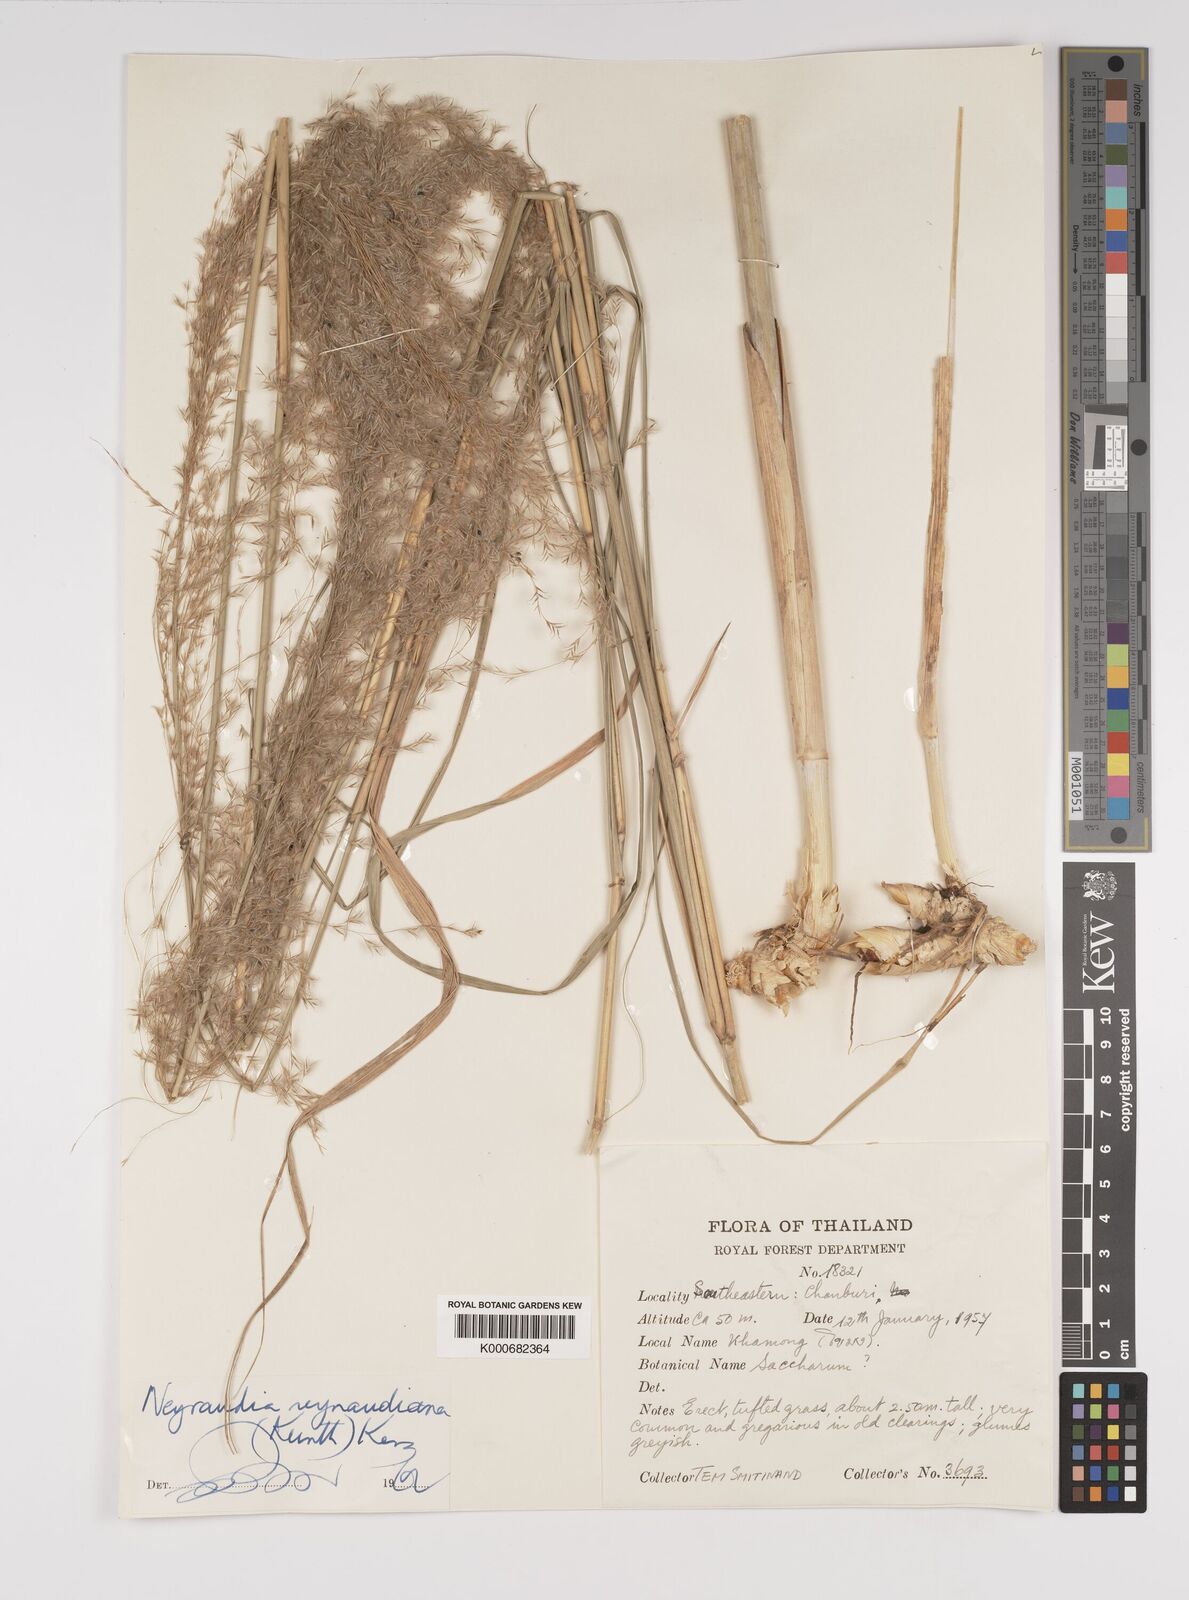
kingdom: Plantae
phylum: Tracheophyta
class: Liliopsida
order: Poales
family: Poaceae
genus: Neyraudia
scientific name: Neyraudia reynaudiana
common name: Silkreed
